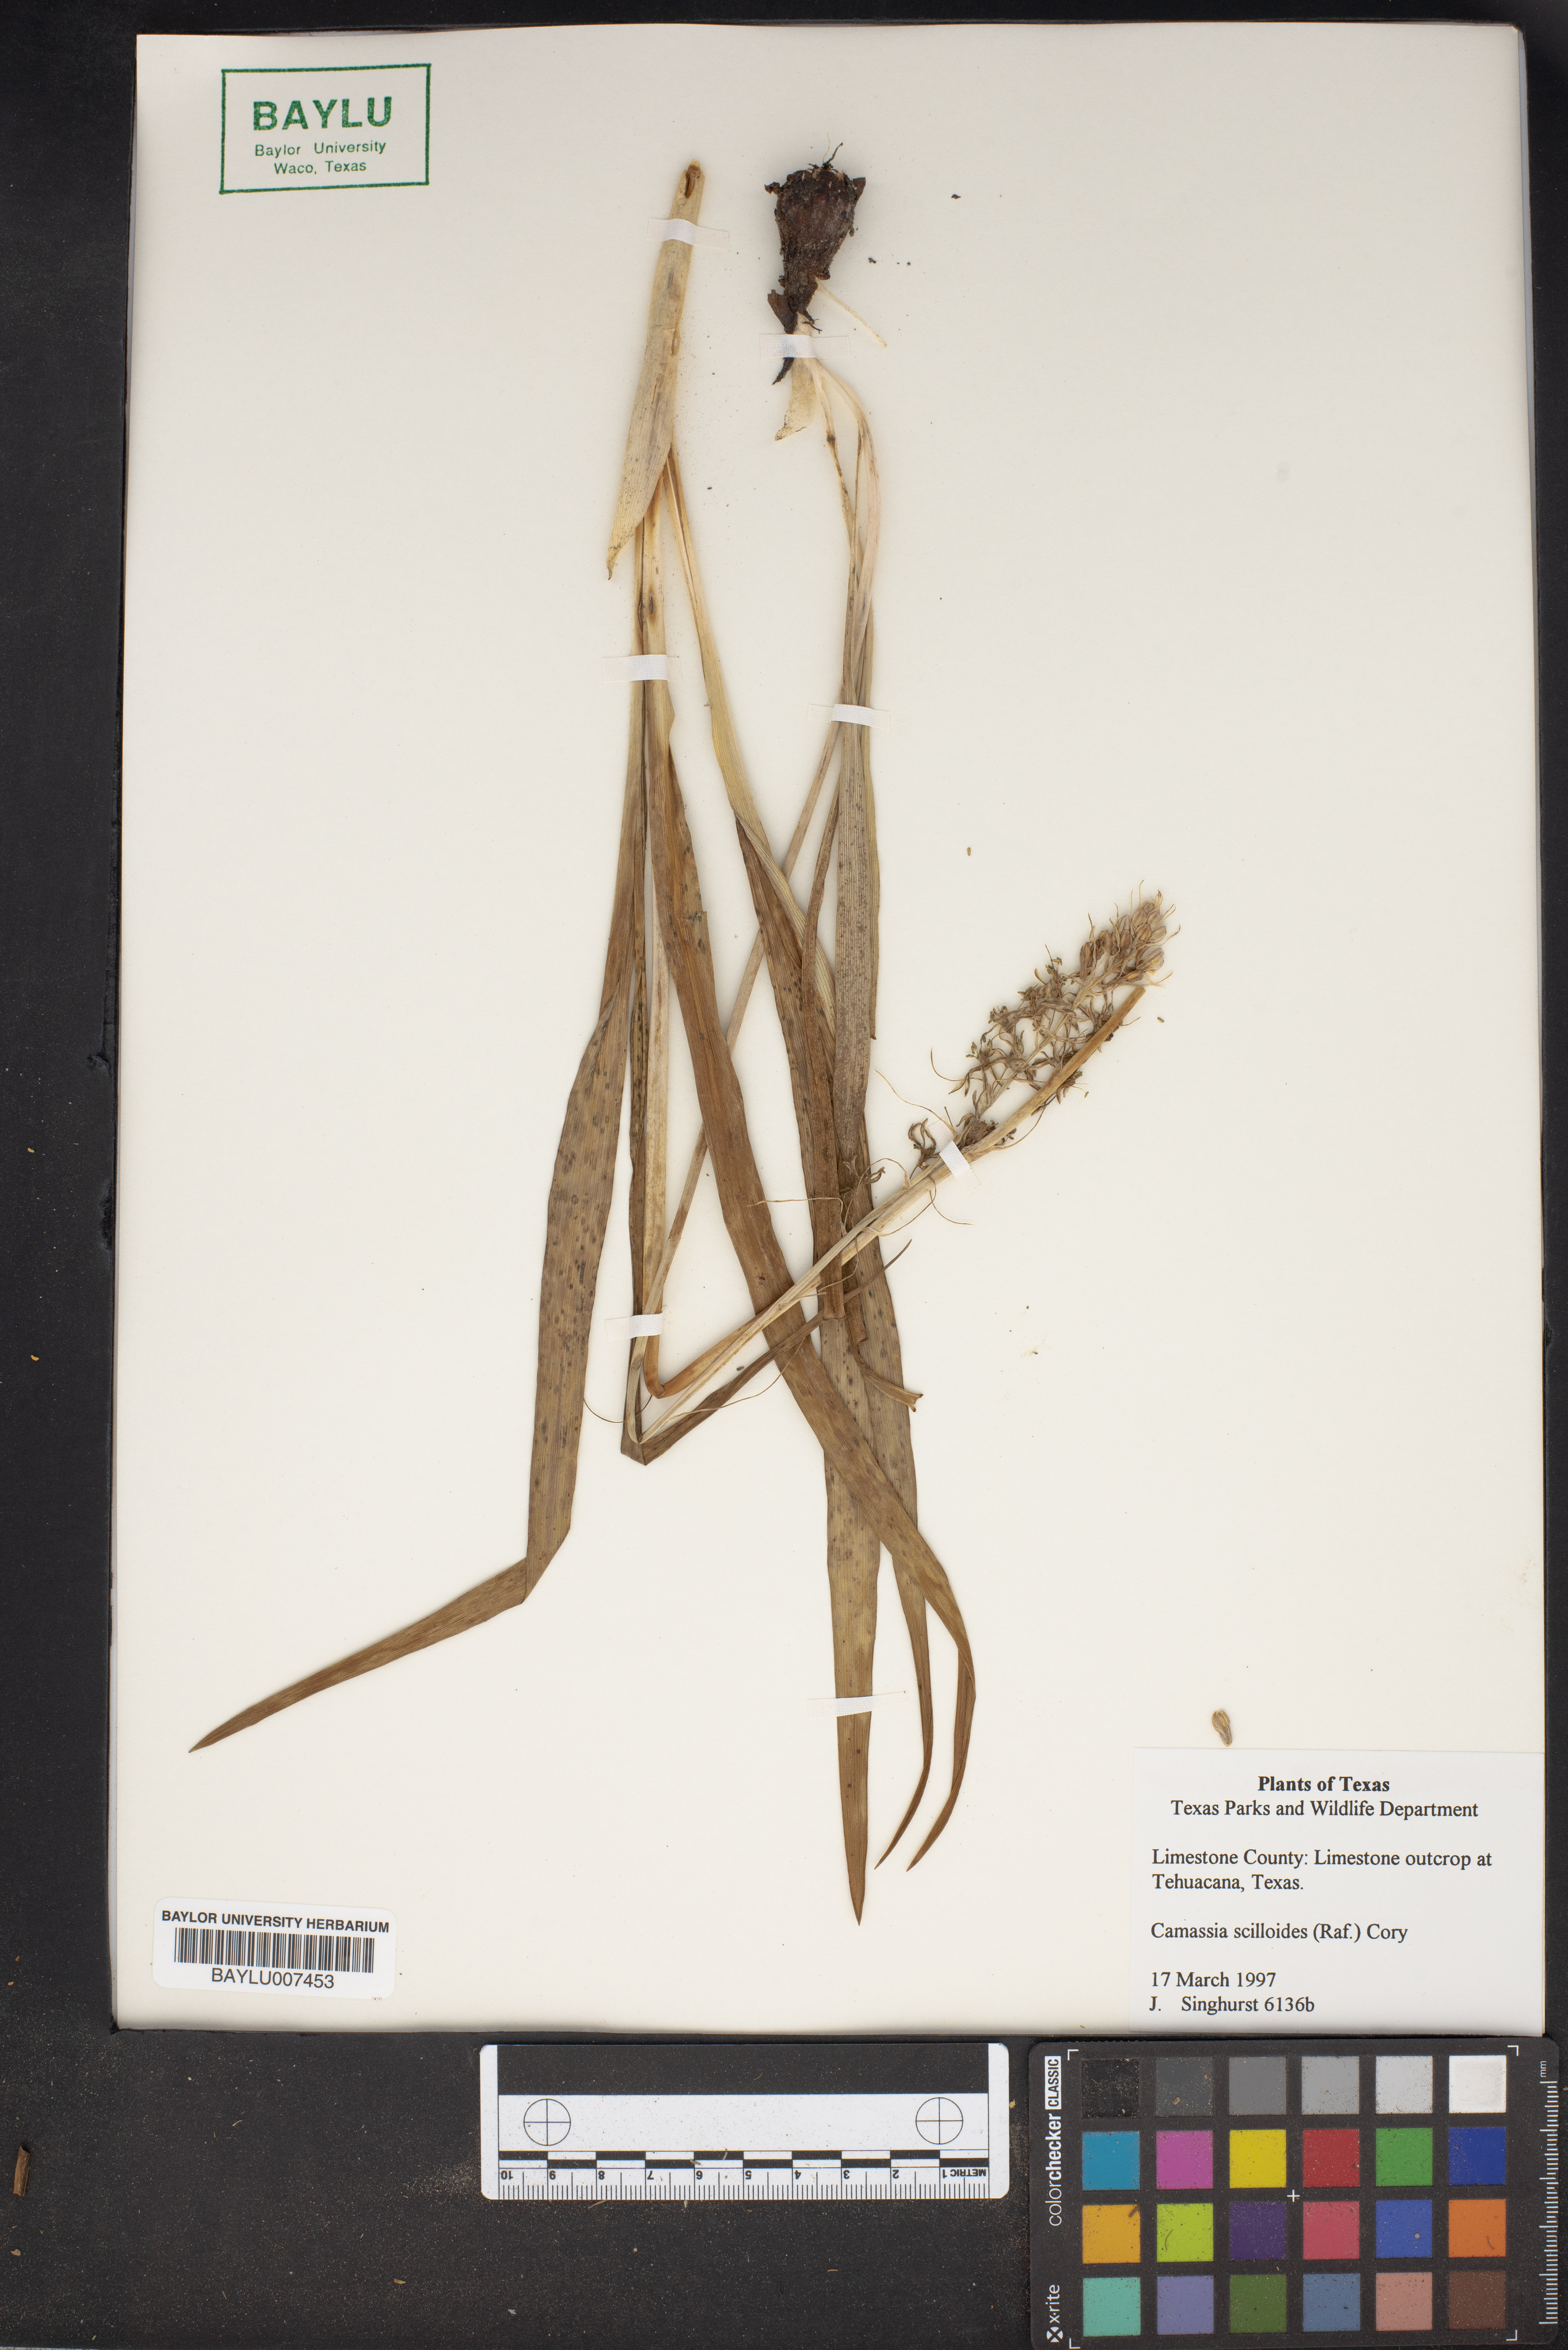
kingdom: Plantae
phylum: Tracheophyta
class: Liliopsida
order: Asparagales
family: Asparagaceae
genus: Camassia
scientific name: Camassia scilloides
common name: Wild hyacinth
